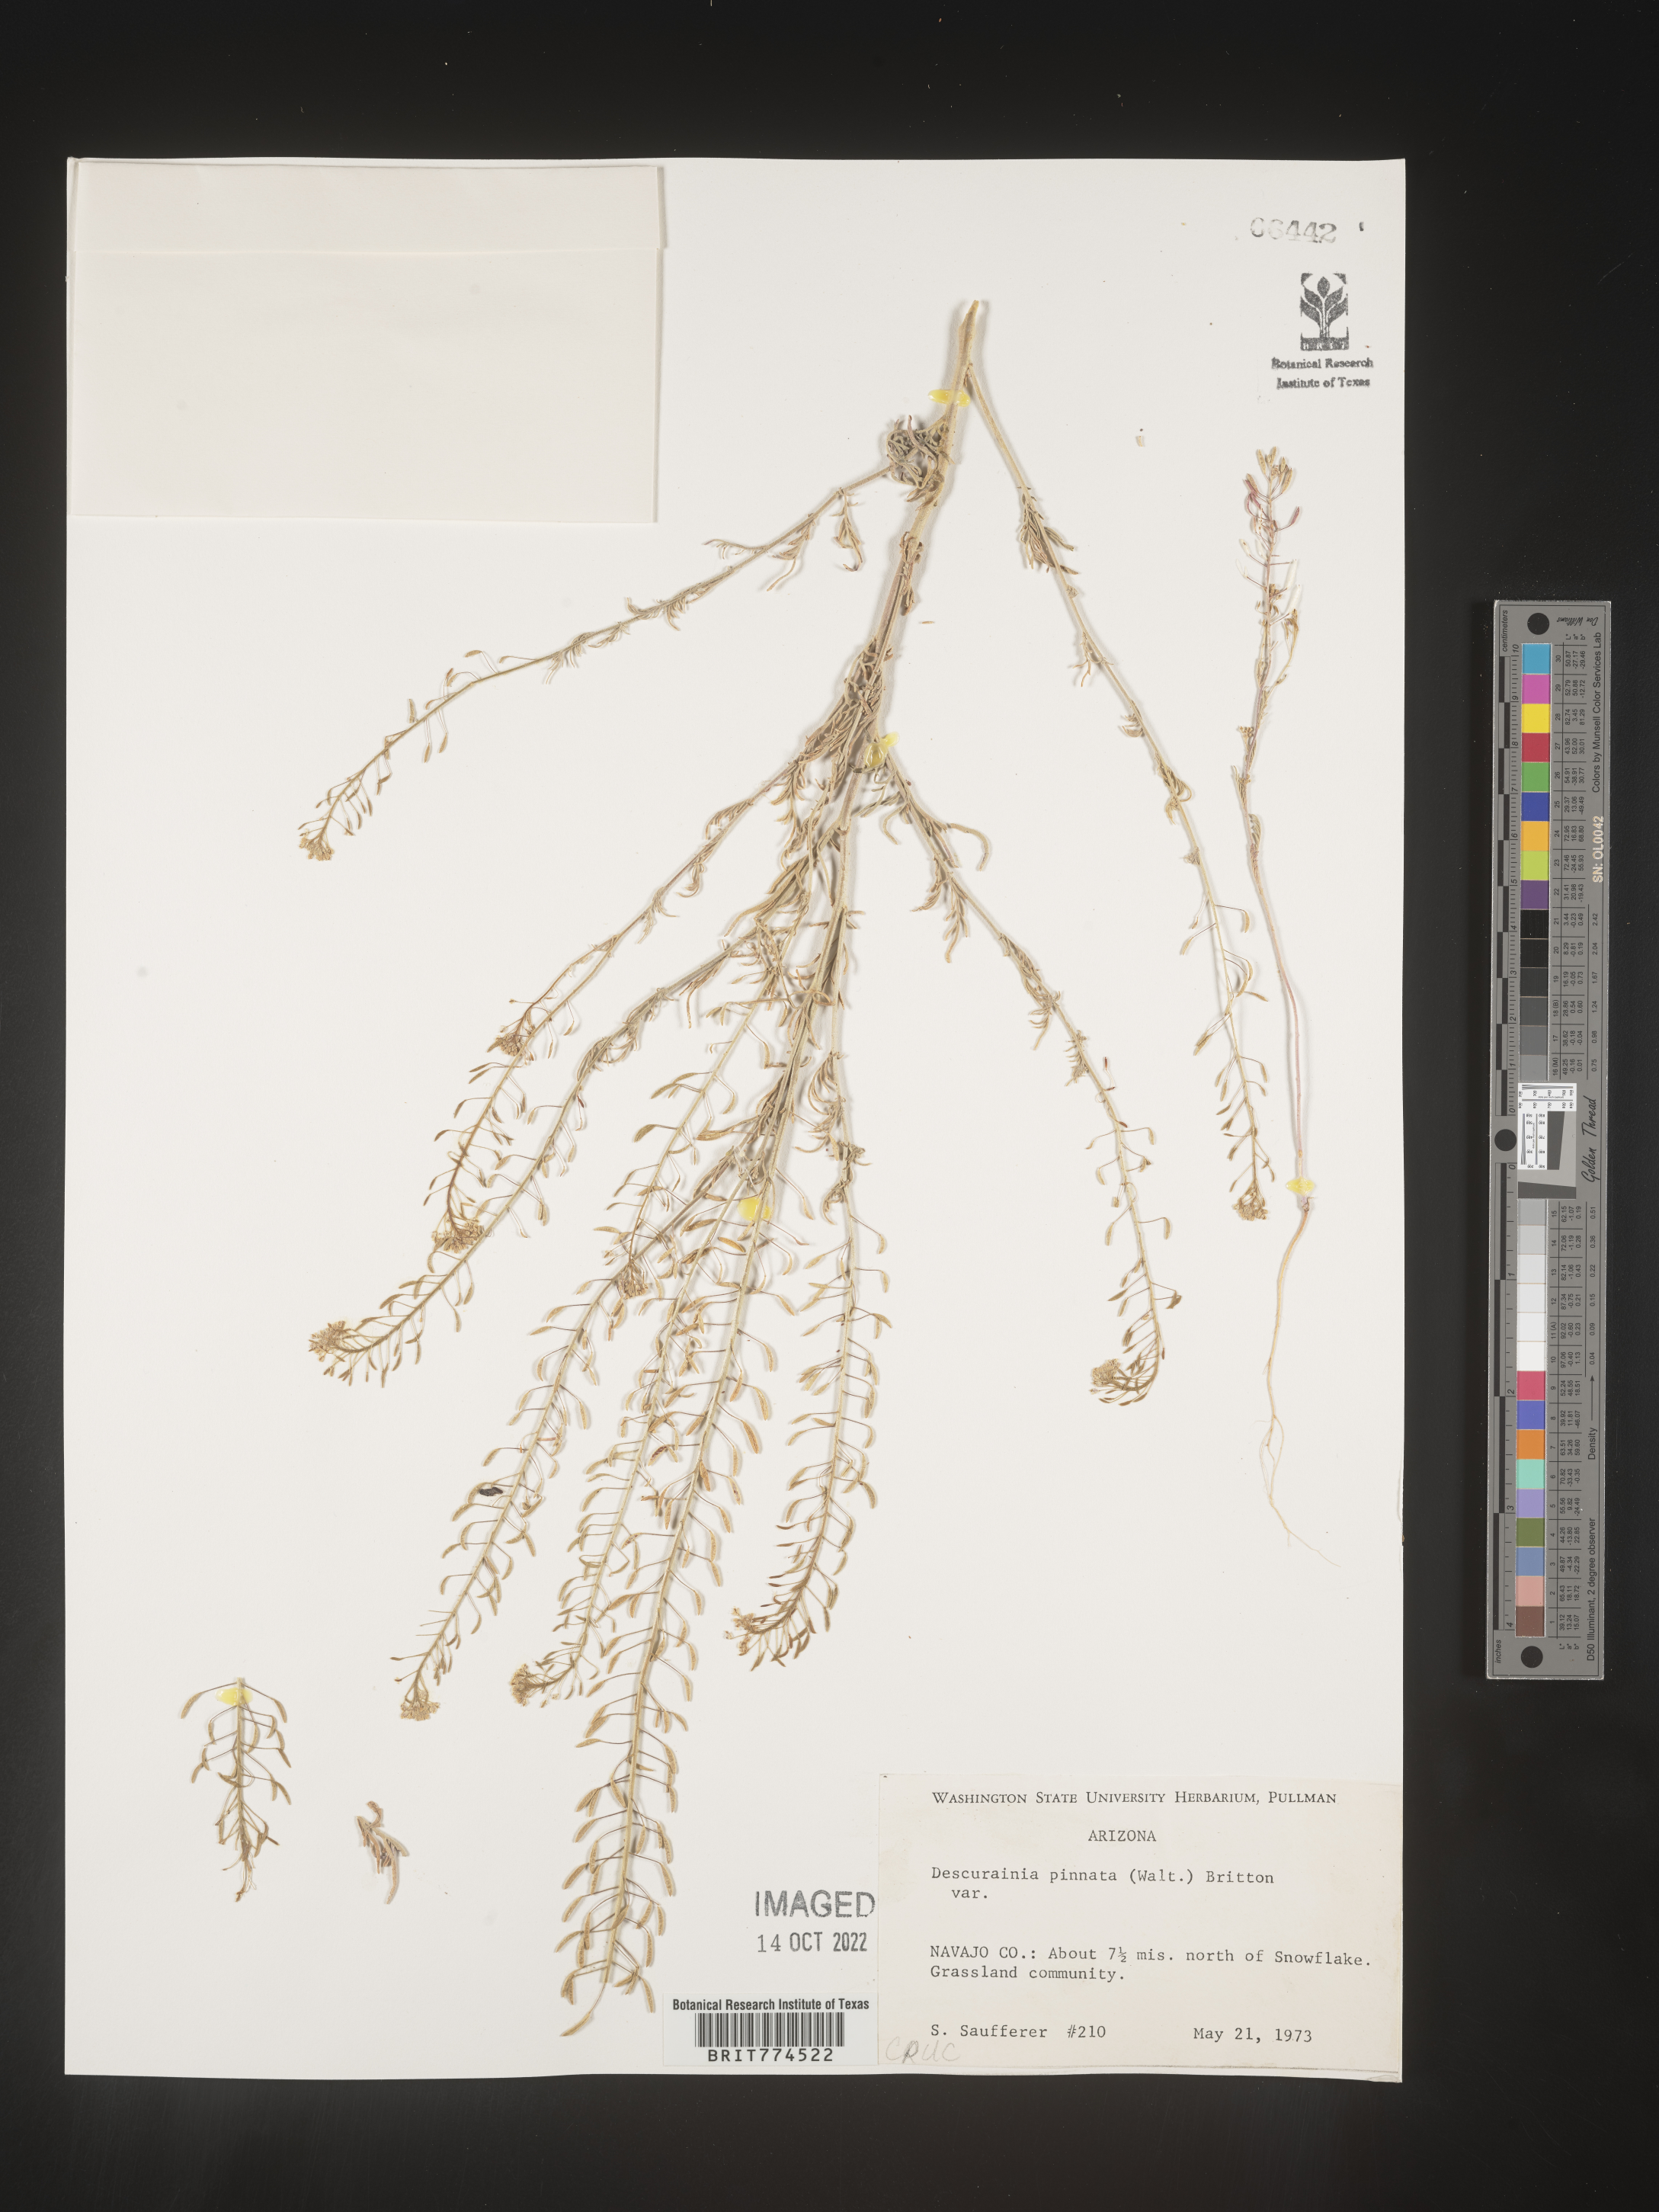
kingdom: Plantae
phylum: Tracheophyta
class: Magnoliopsida
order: Brassicales
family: Brassicaceae
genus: Descurainia
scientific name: Descurainia pinnata
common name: Western tansy mustard
